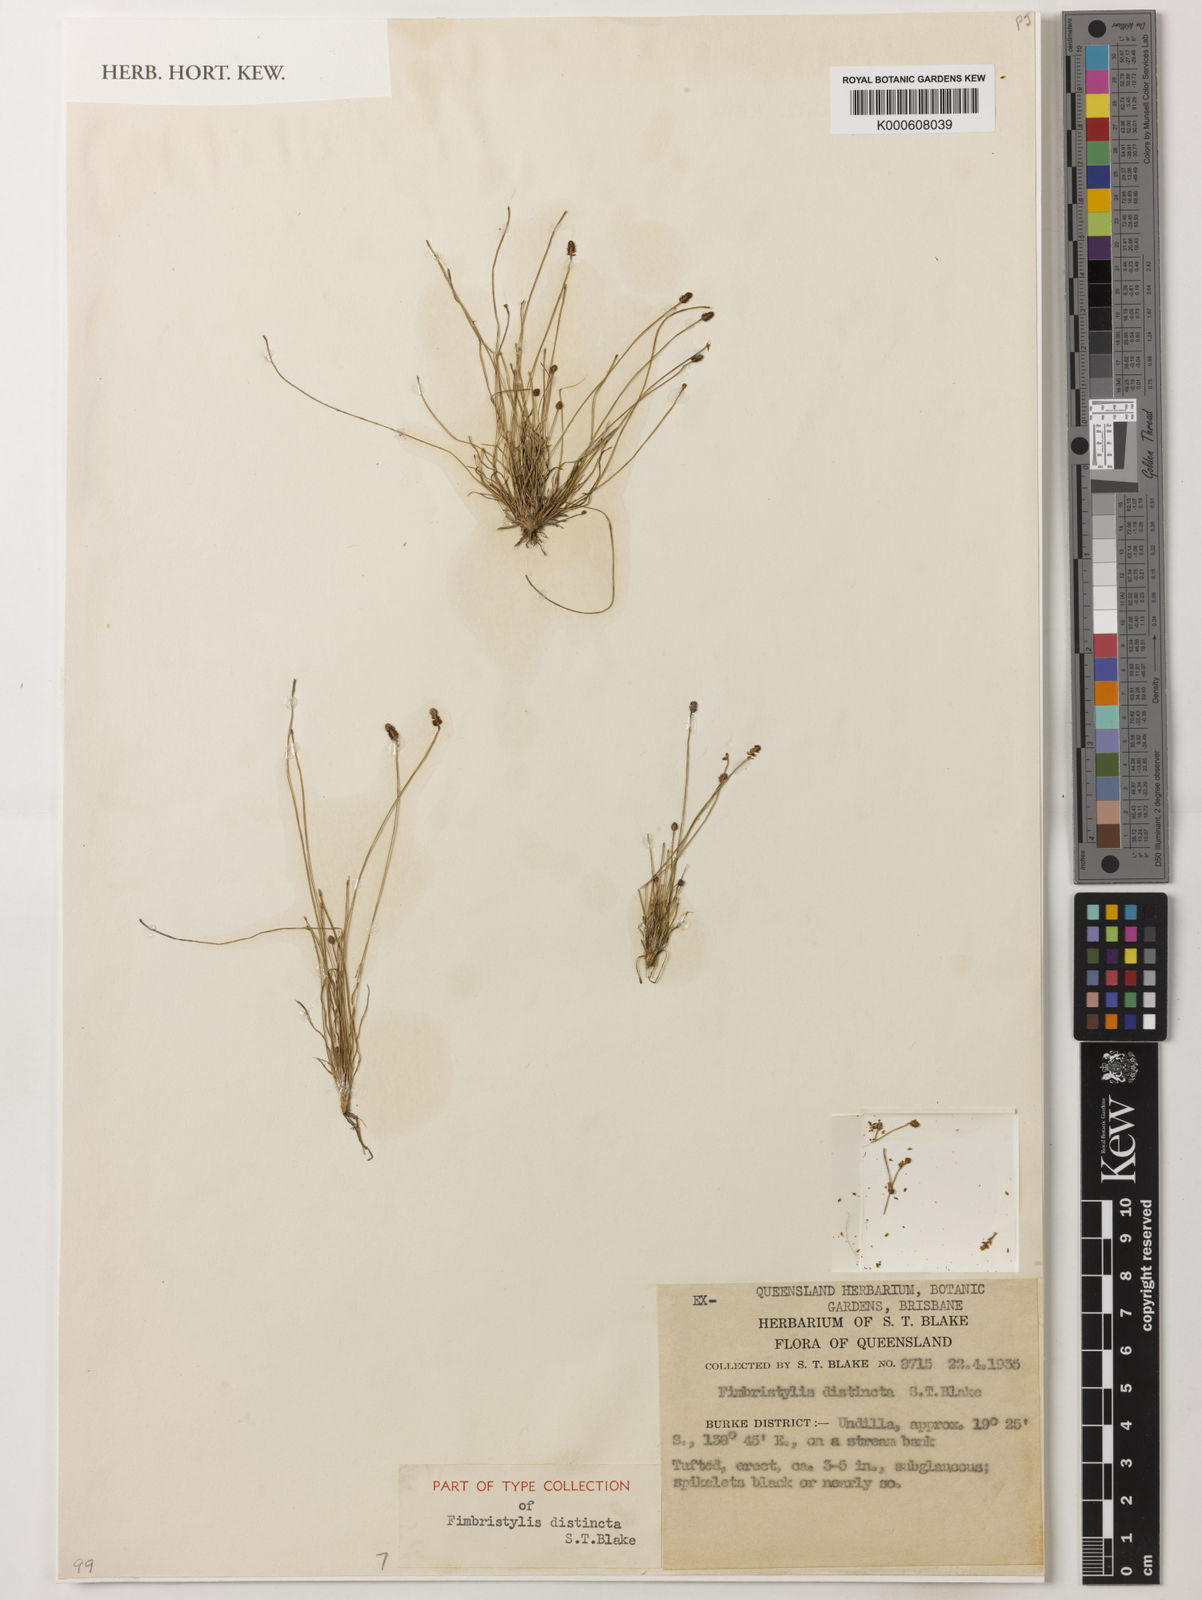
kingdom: Plantae
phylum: Tracheophyta
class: Liliopsida
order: Poales
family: Cyperaceae
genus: Fimbristylis
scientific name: Fimbristylis distincta
